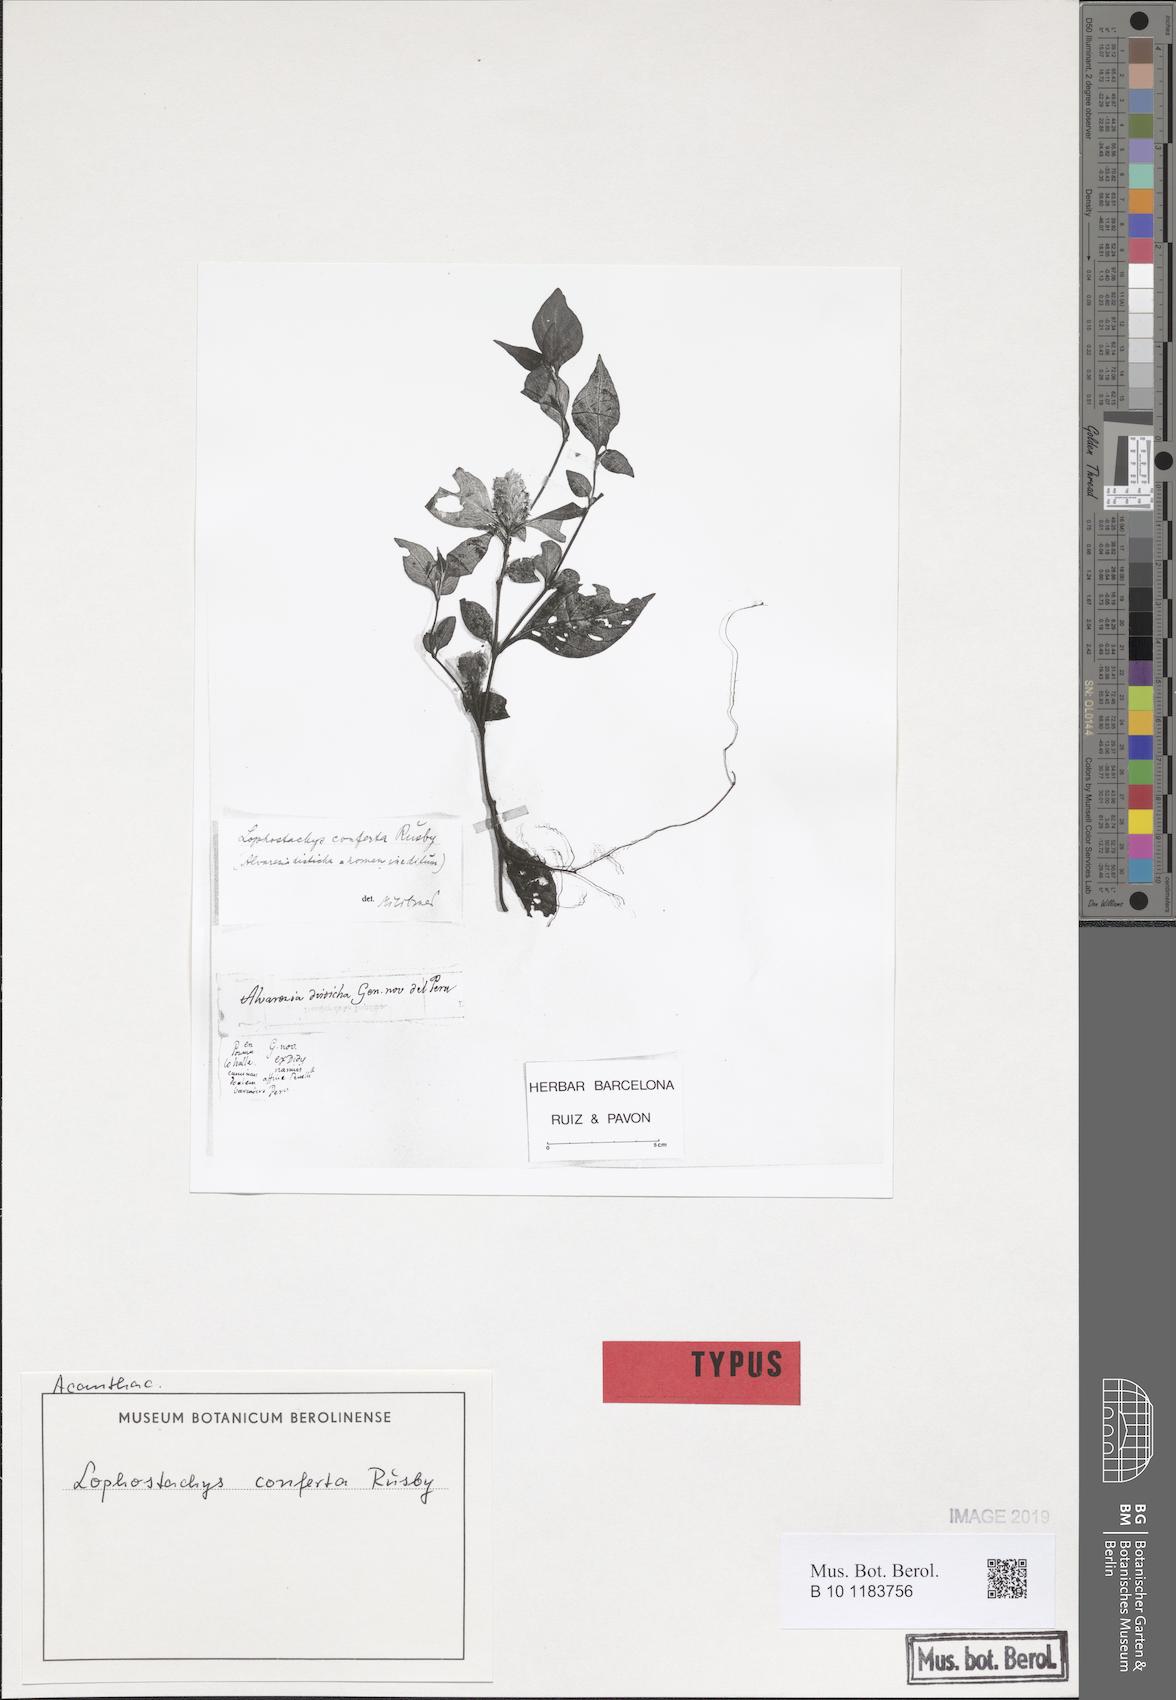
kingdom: Plantae
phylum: Tracheophyta
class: Magnoliopsida
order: Lamiales
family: Acanthaceae
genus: Lepidagathis
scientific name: Lepidagathis alvarezia
